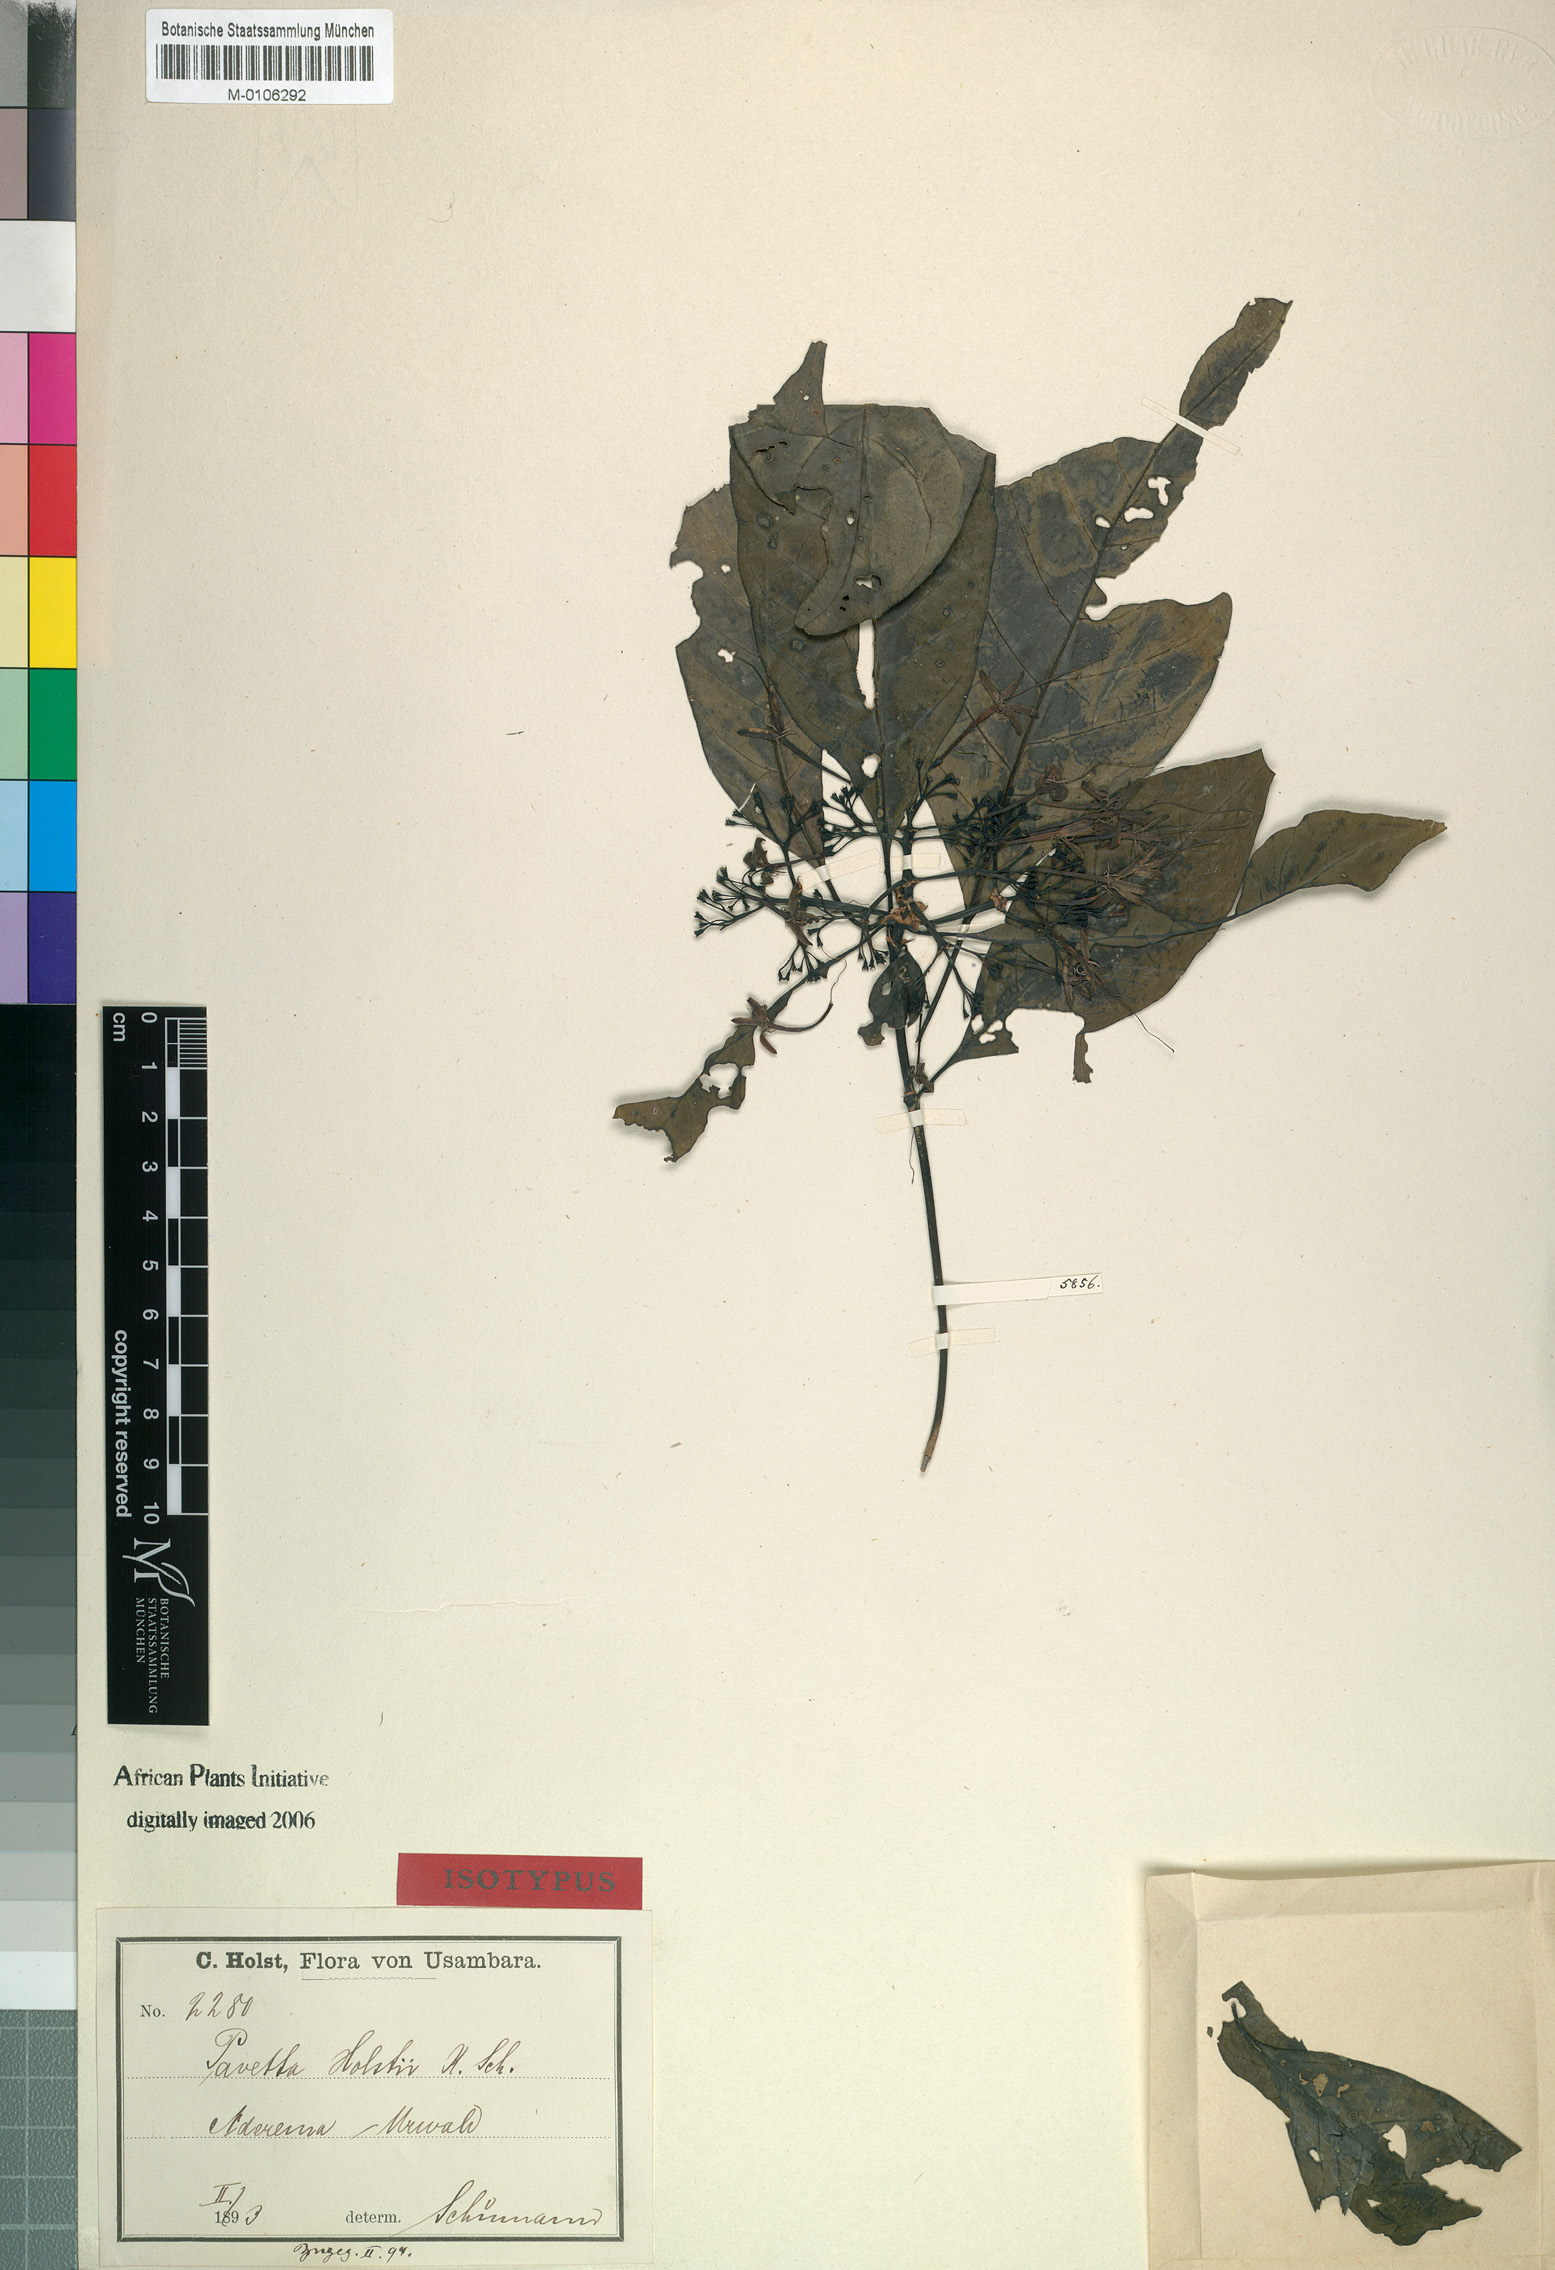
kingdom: Plantae
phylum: Tracheophyta
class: Magnoliopsida
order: Gentianales
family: Rubiaceae
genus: Pavetta
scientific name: Pavetta holstii
